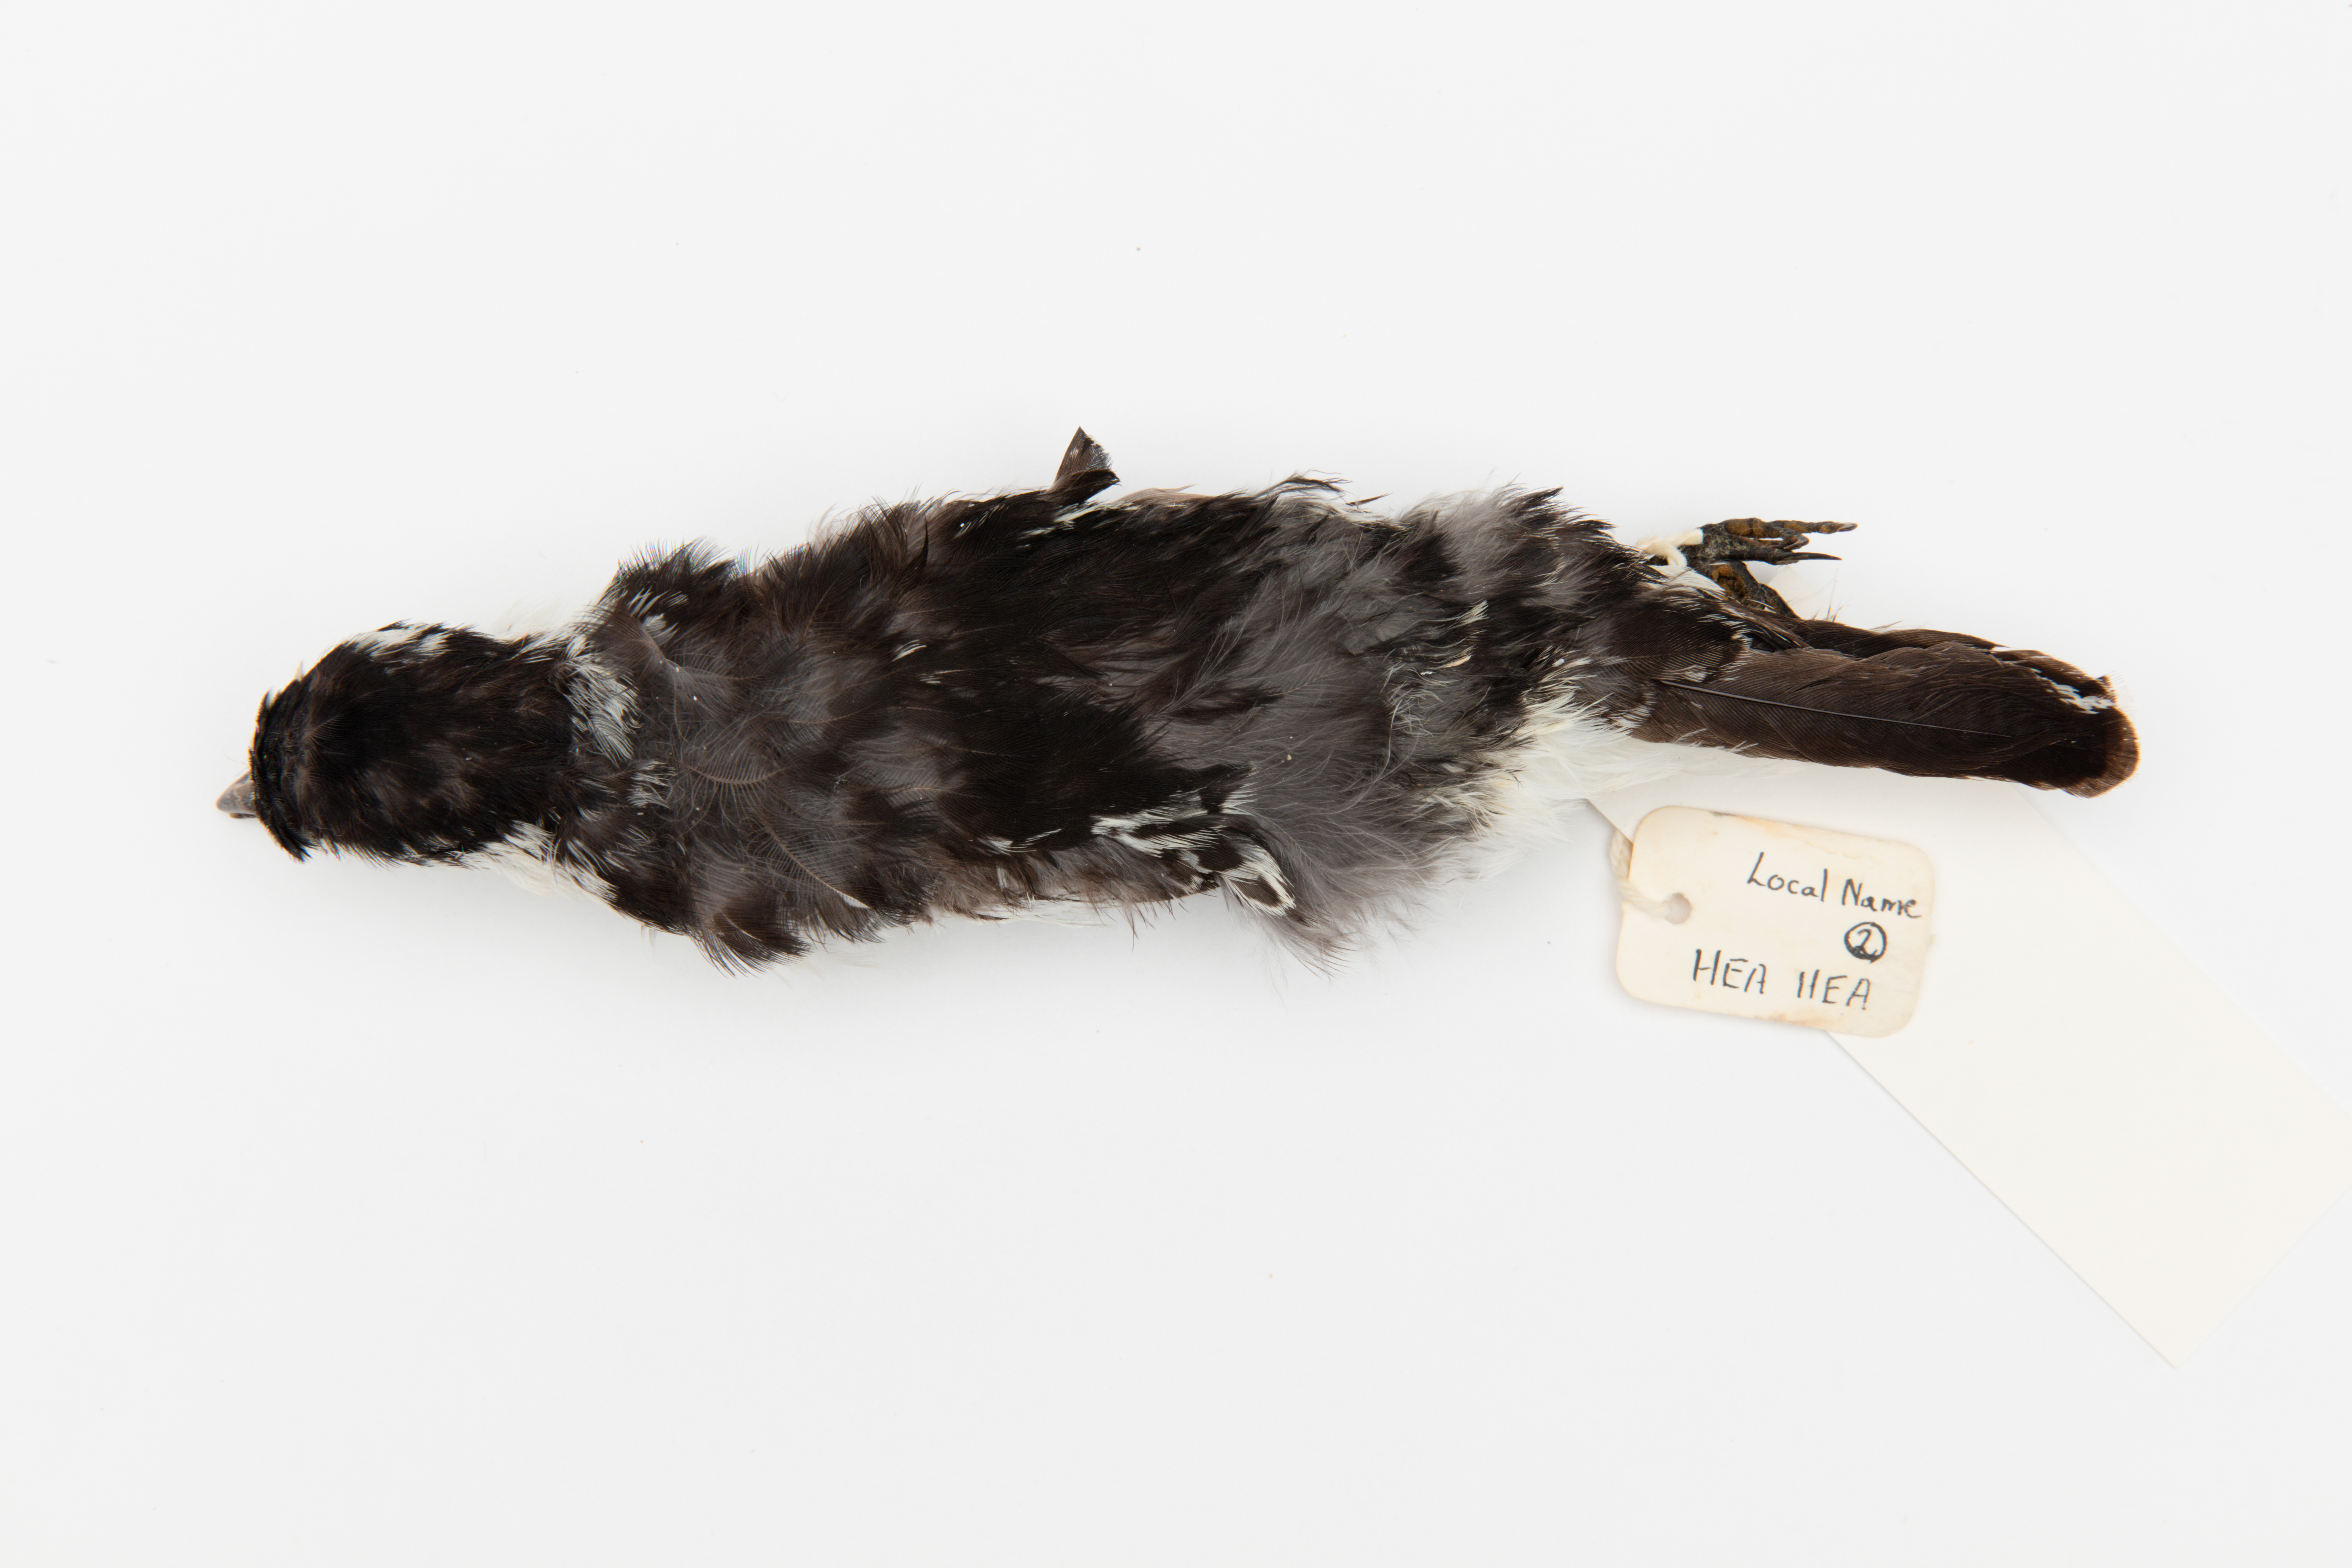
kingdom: Animalia
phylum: Chordata
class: Aves
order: Passeriformes
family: Campephagidae
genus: Lalage
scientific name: Lalage maculosa
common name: Polynesian triller
